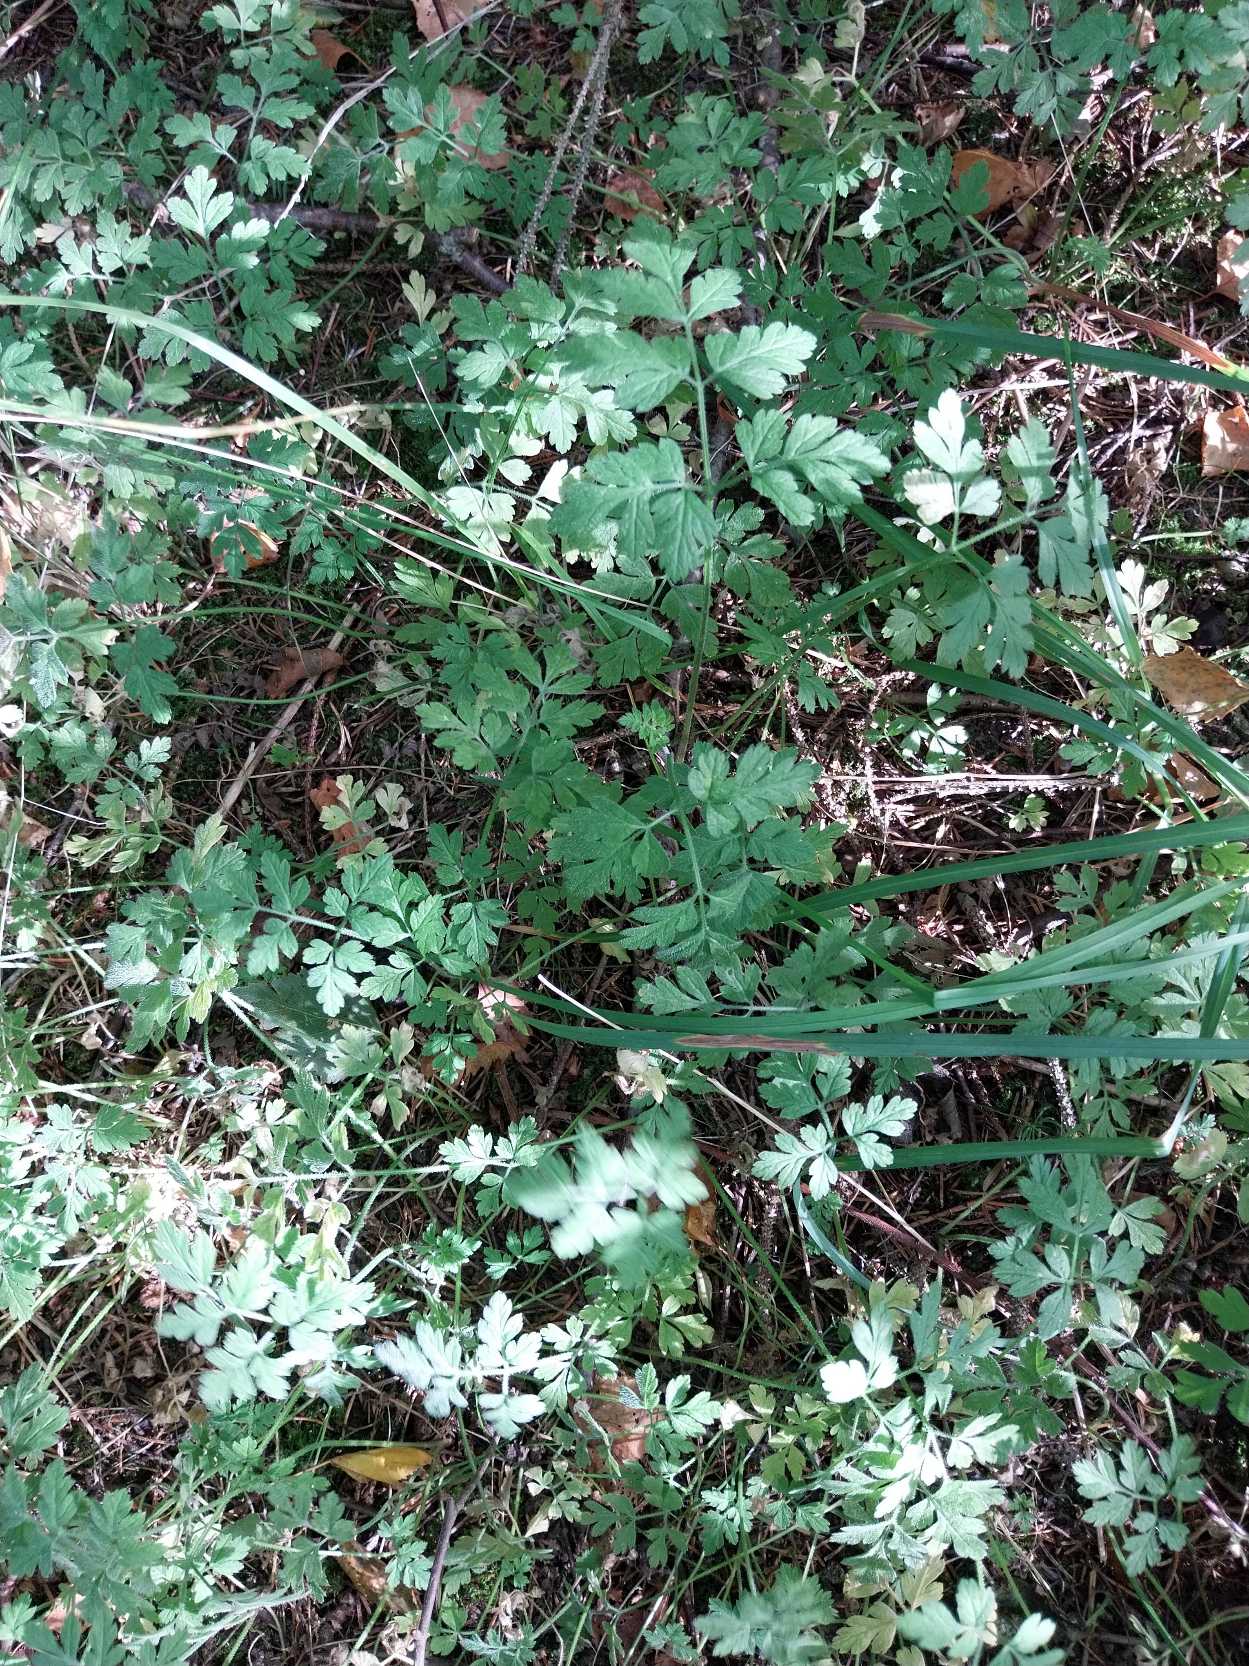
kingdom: Plantae
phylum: Tracheophyta
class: Magnoliopsida
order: Apiales
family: Apiaceae
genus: Chaerophyllum
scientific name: Chaerophyllum temulum
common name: Almindelig hulsvøb
